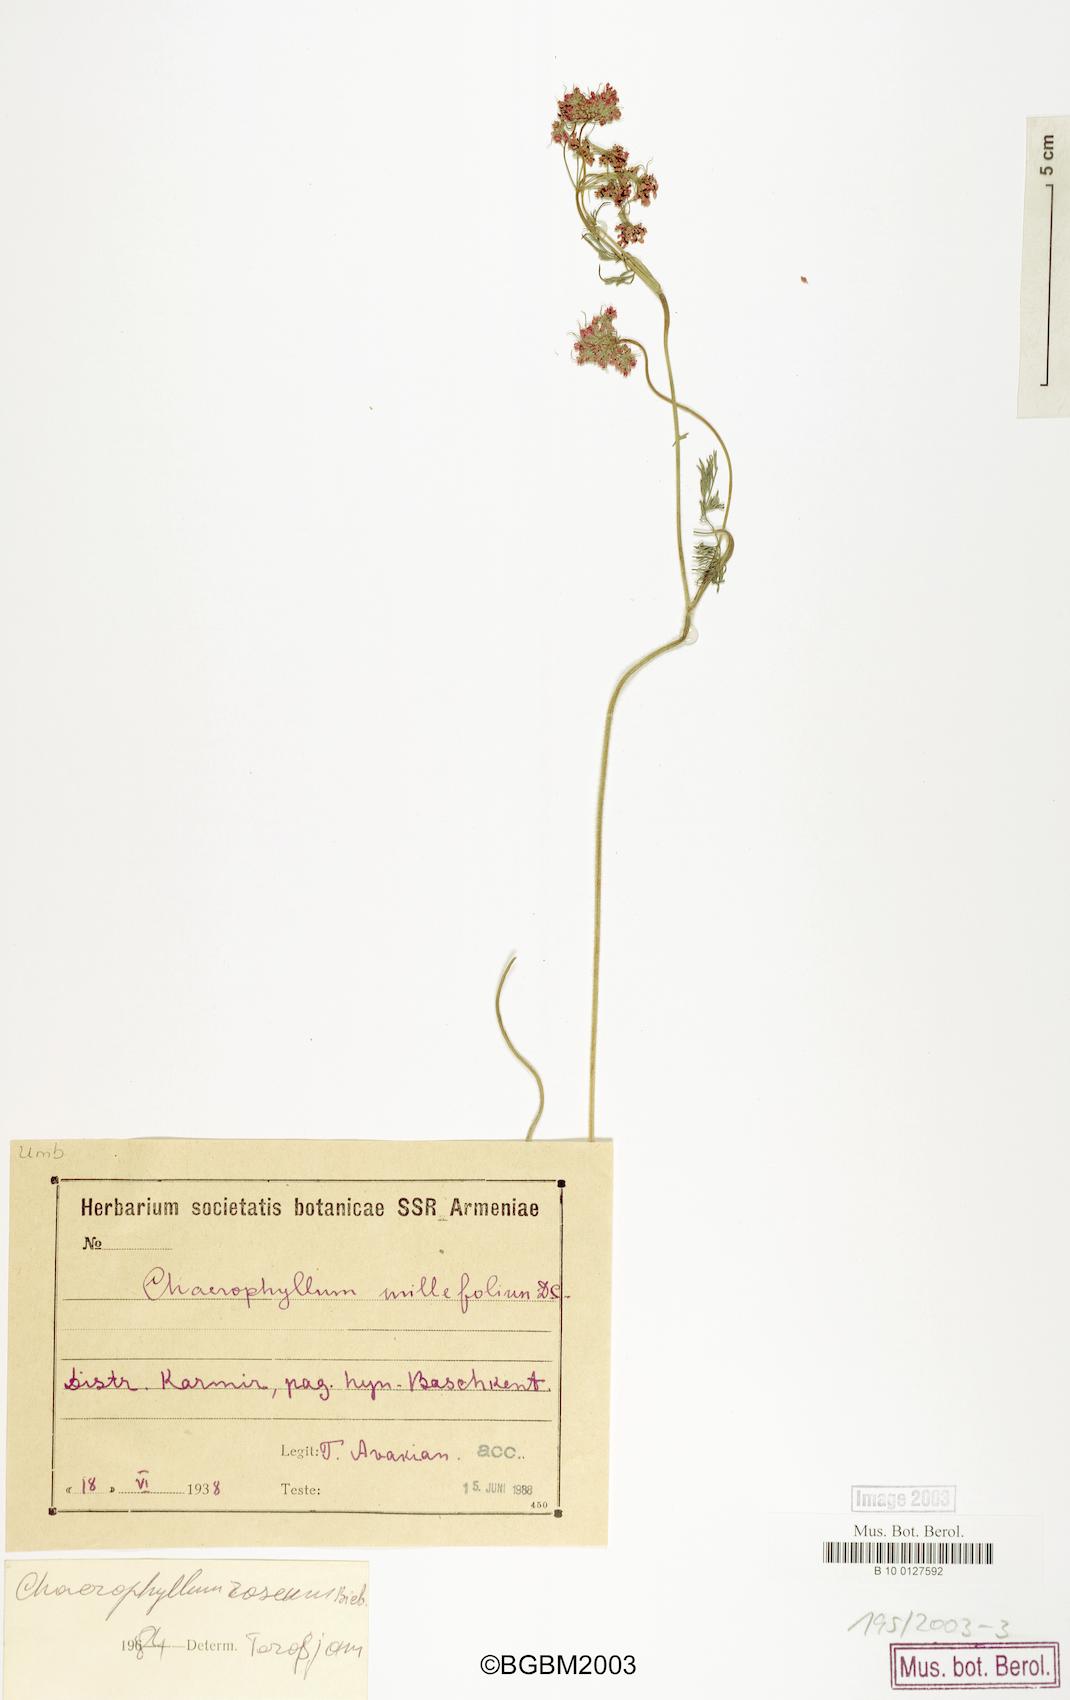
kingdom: Plantae
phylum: Tracheophyta
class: Magnoliopsida
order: Apiales
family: Apiaceae
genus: Chaerophyllum
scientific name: Chaerophyllum roseum
